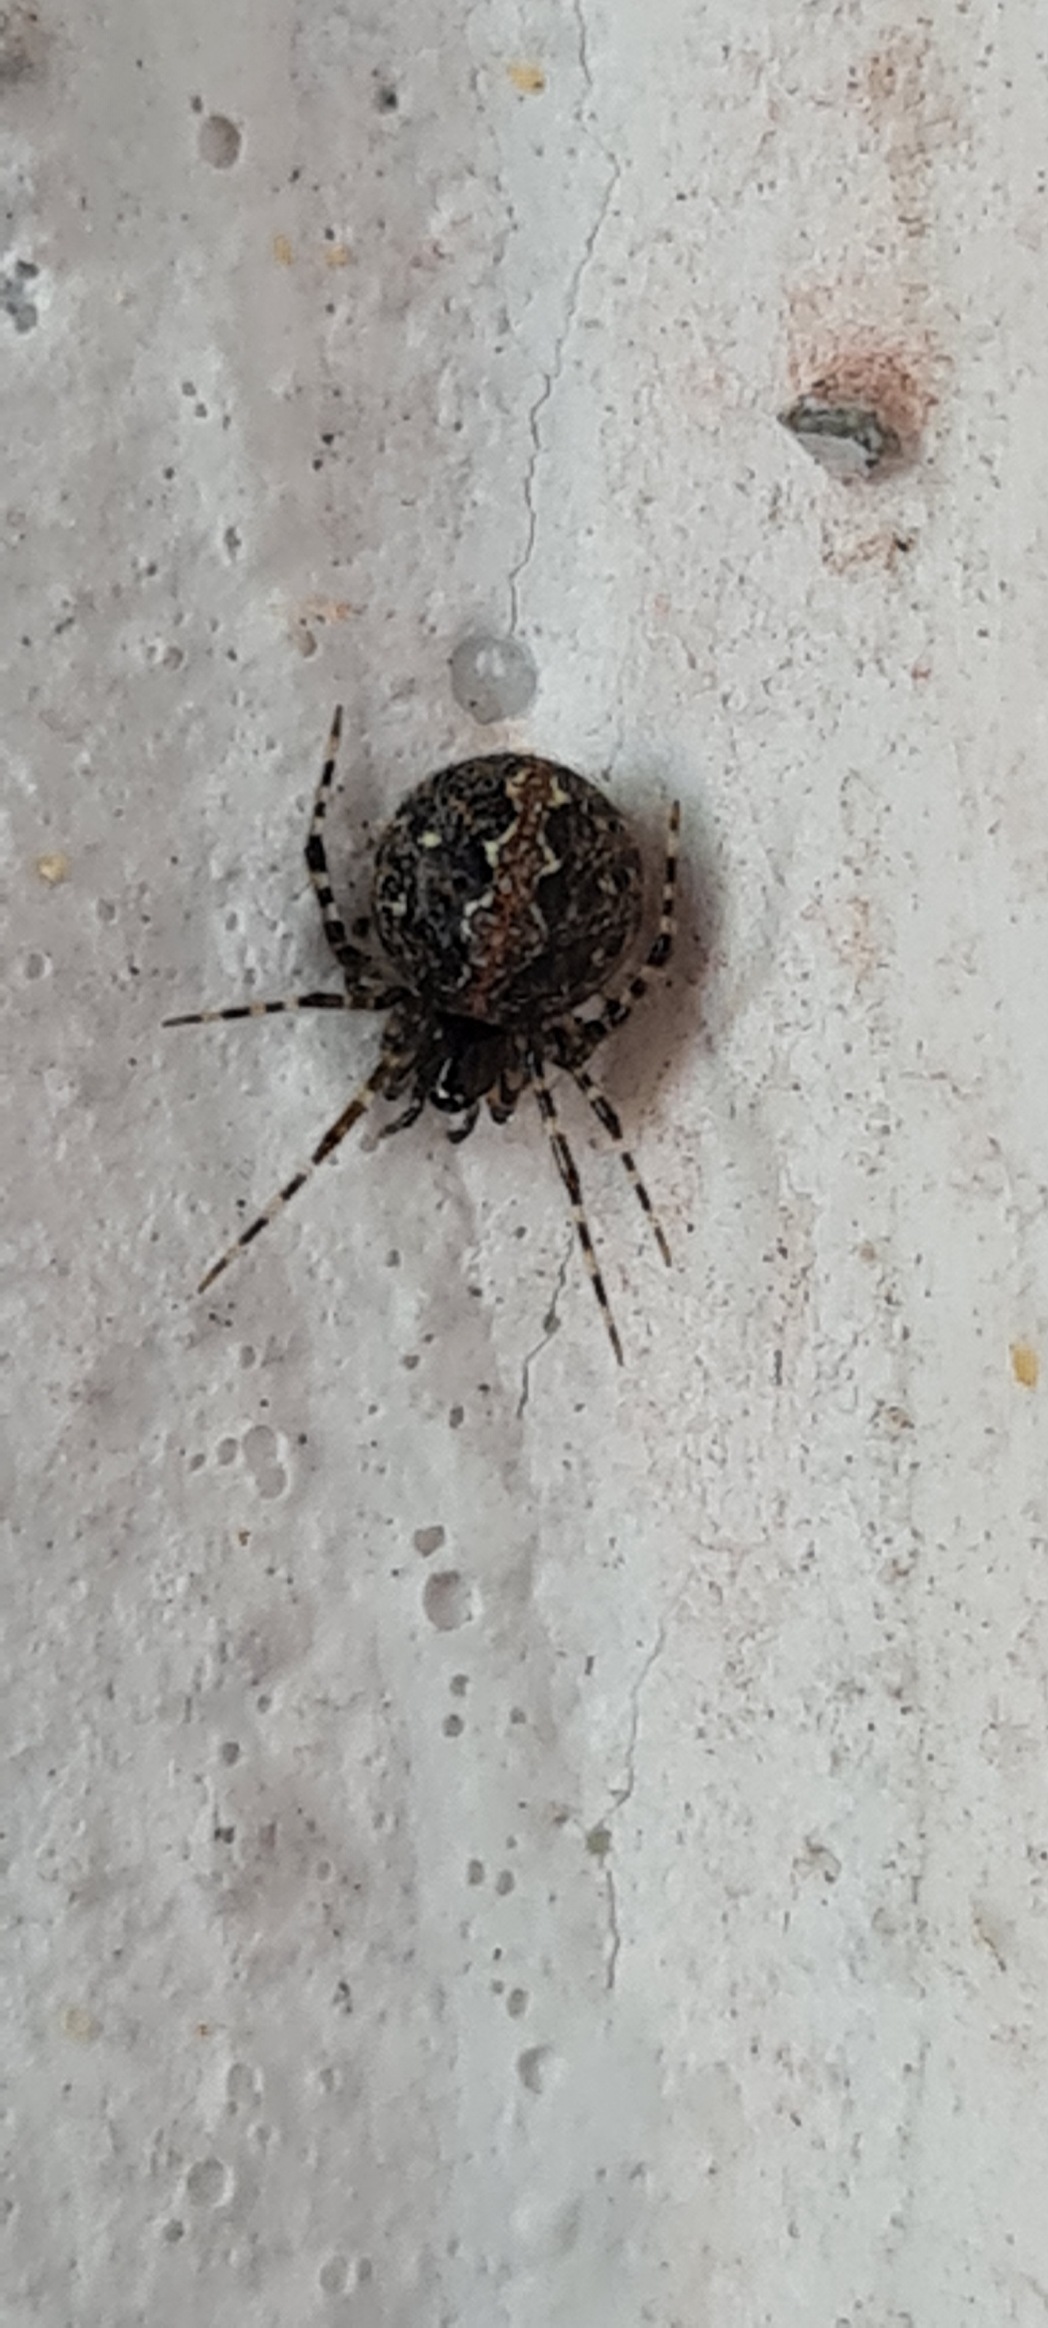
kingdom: Animalia
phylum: Arthropoda
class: Arachnida
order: Araneae
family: Theridiidae
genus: Theridion
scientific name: Theridion
